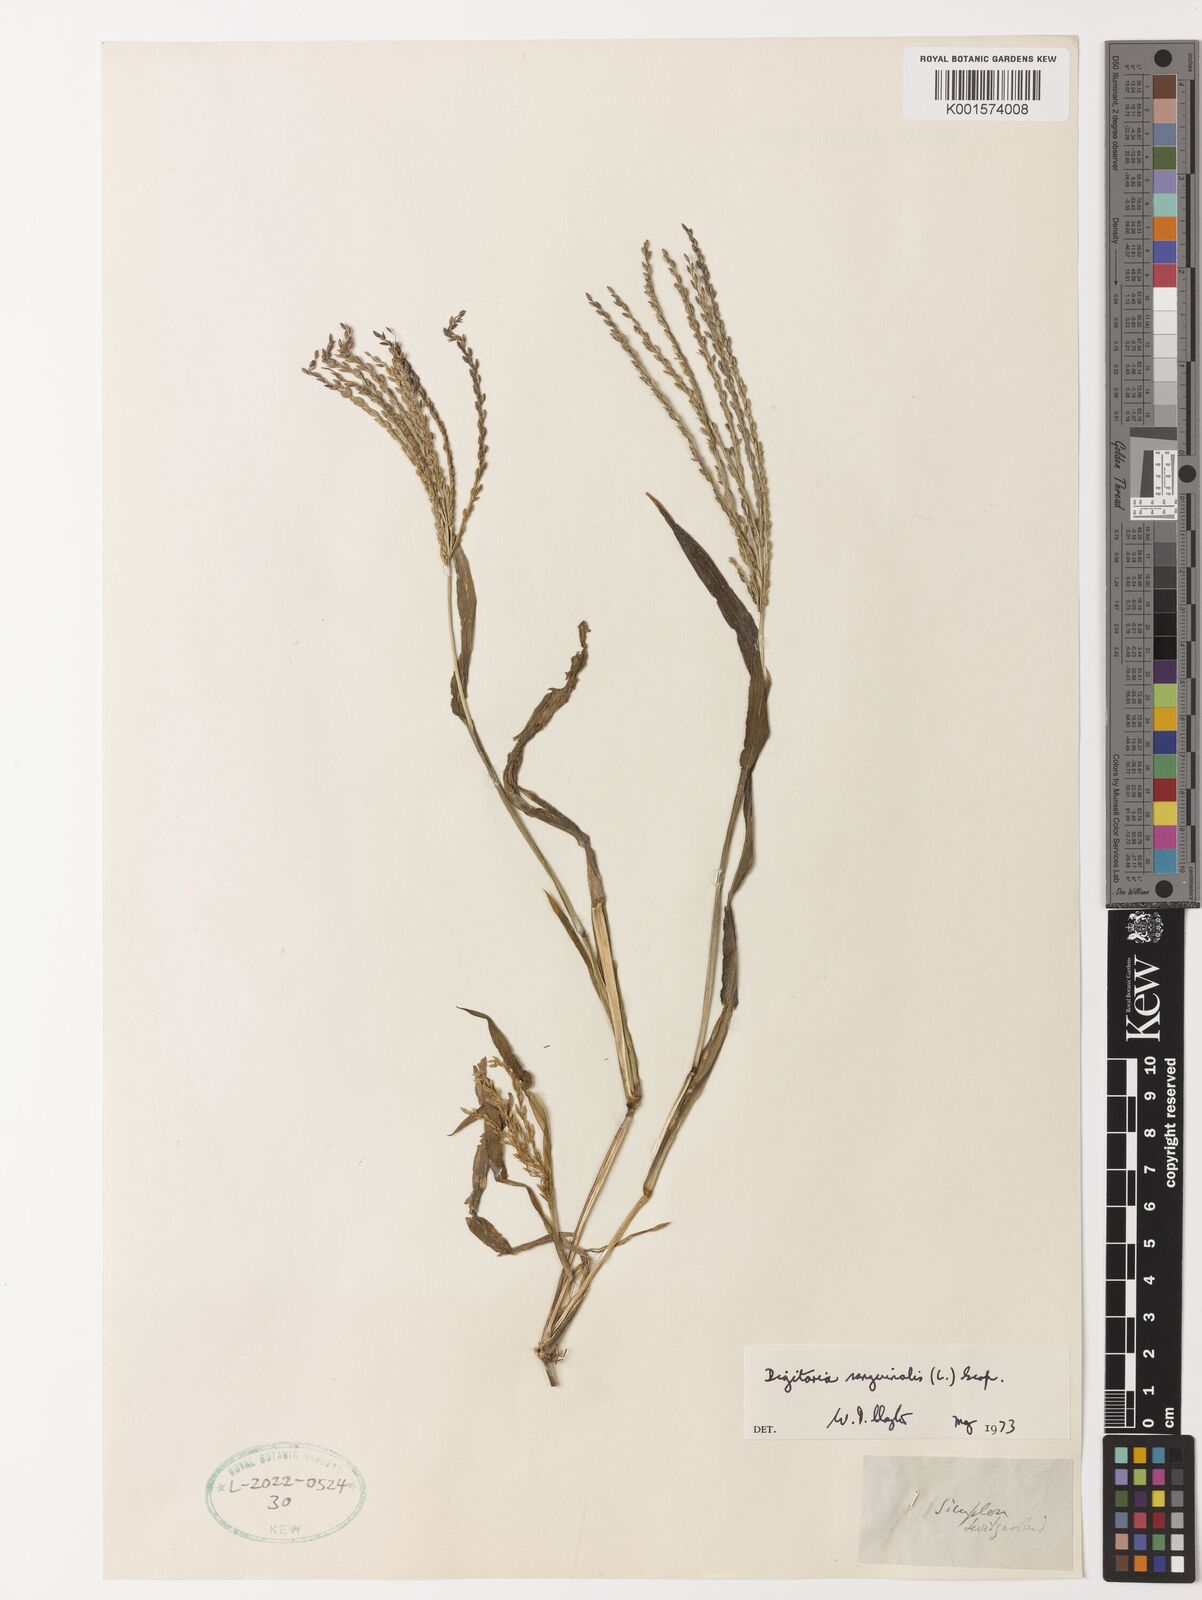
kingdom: Plantae
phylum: Tracheophyta
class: Liliopsida
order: Poales
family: Poaceae
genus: Digitaria
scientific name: Digitaria sanguinalis
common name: Hairy crabgrass
